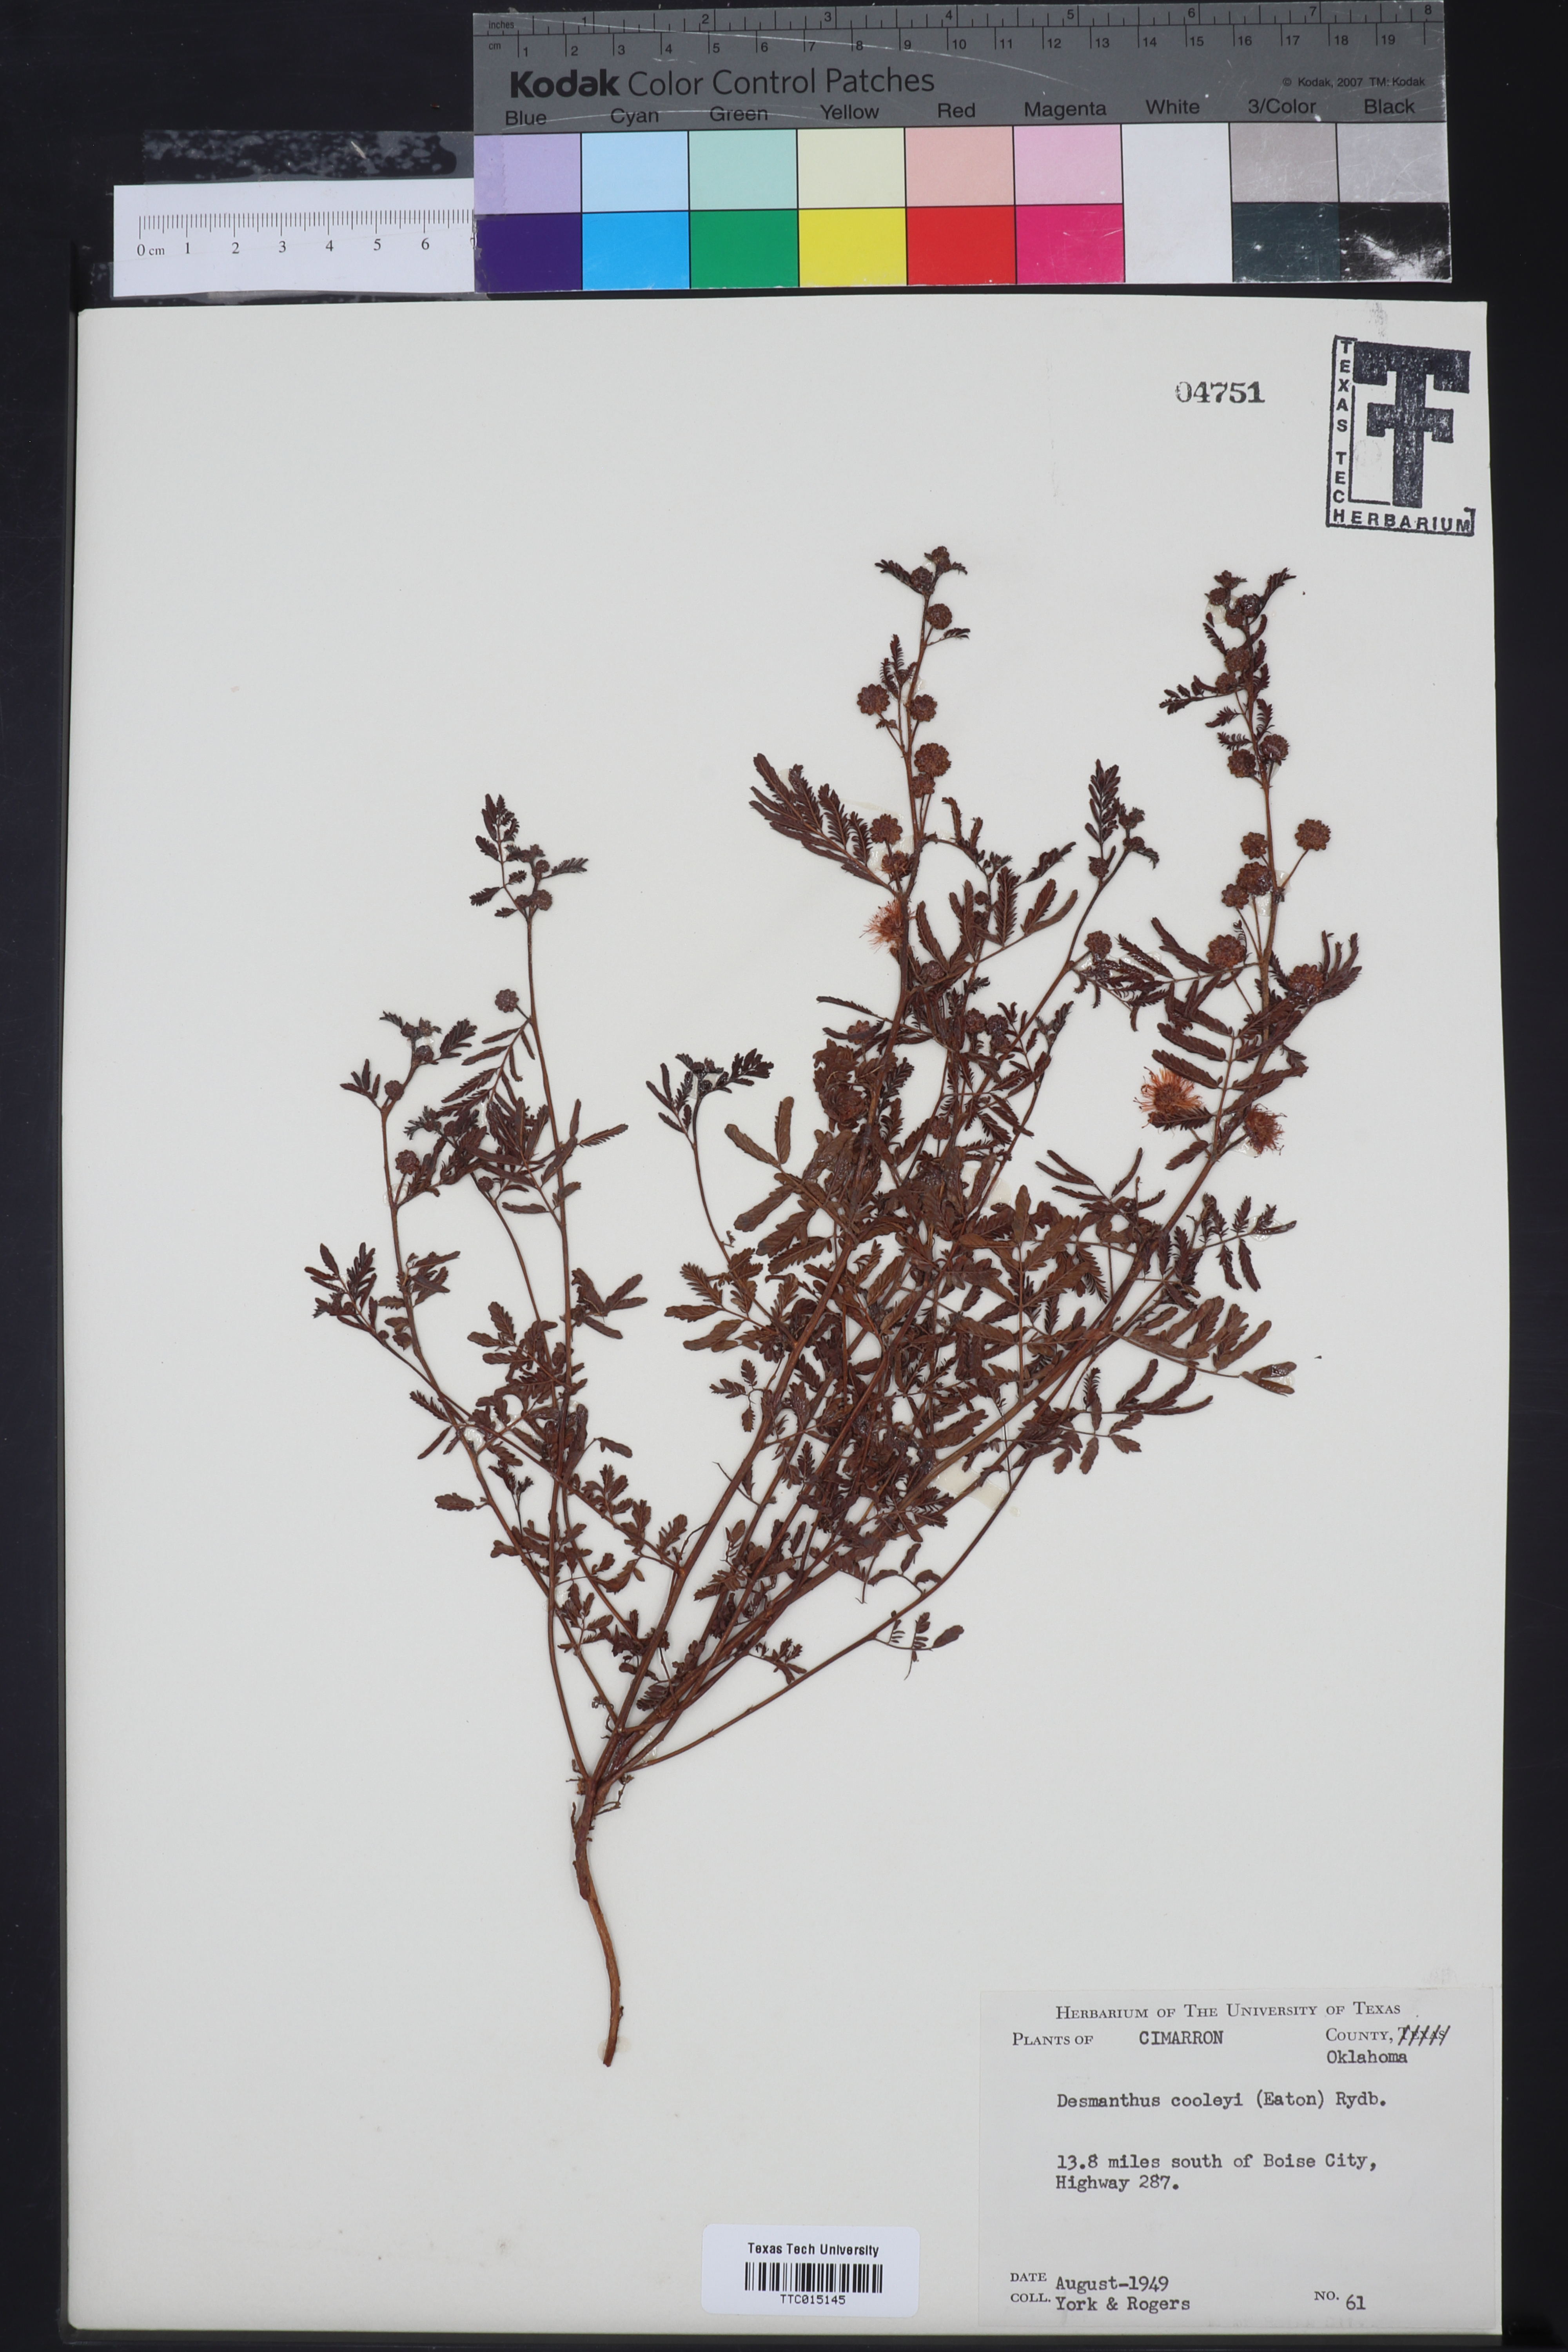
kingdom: Plantae
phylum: Tracheophyta
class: Magnoliopsida
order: Fabales
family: Fabaceae
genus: Desmanthus
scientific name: Desmanthus cooleyi
